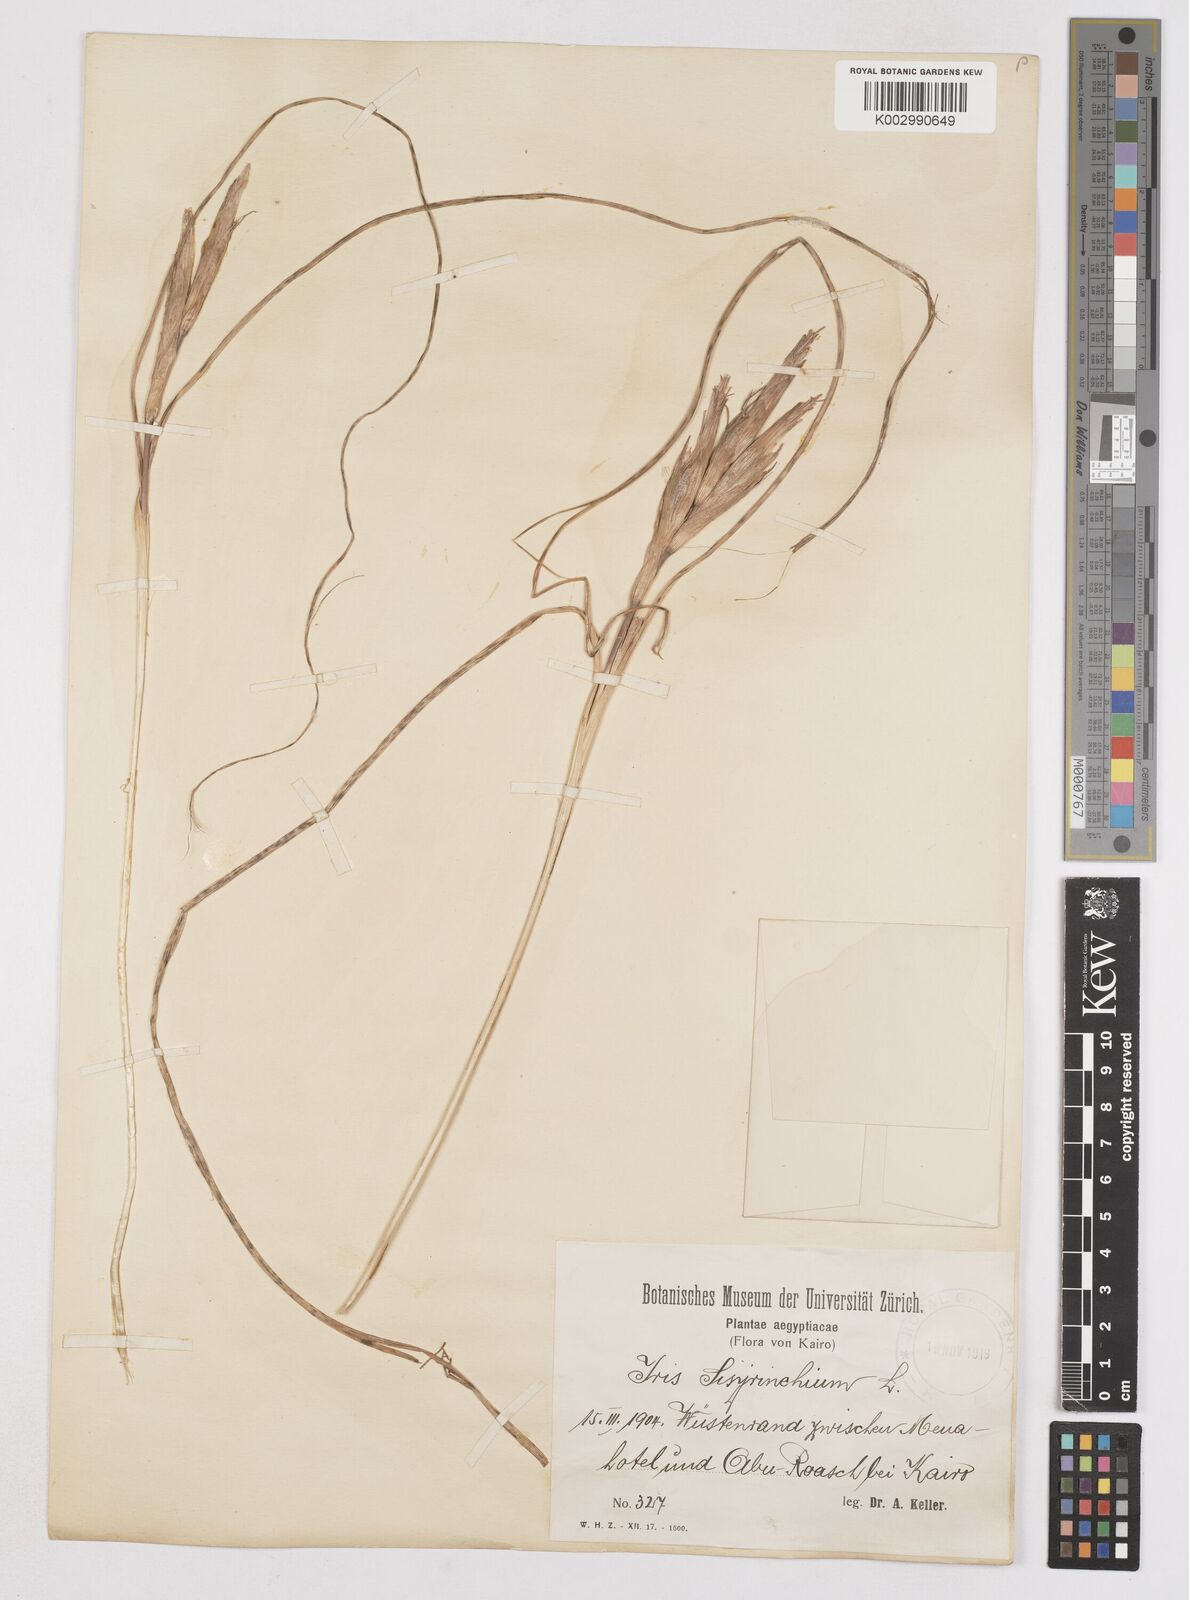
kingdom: Plantae
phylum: Tracheophyta
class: Liliopsida
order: Asparagales
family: Iridaceae
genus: Moraea
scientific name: Moraea sisyrinchium
